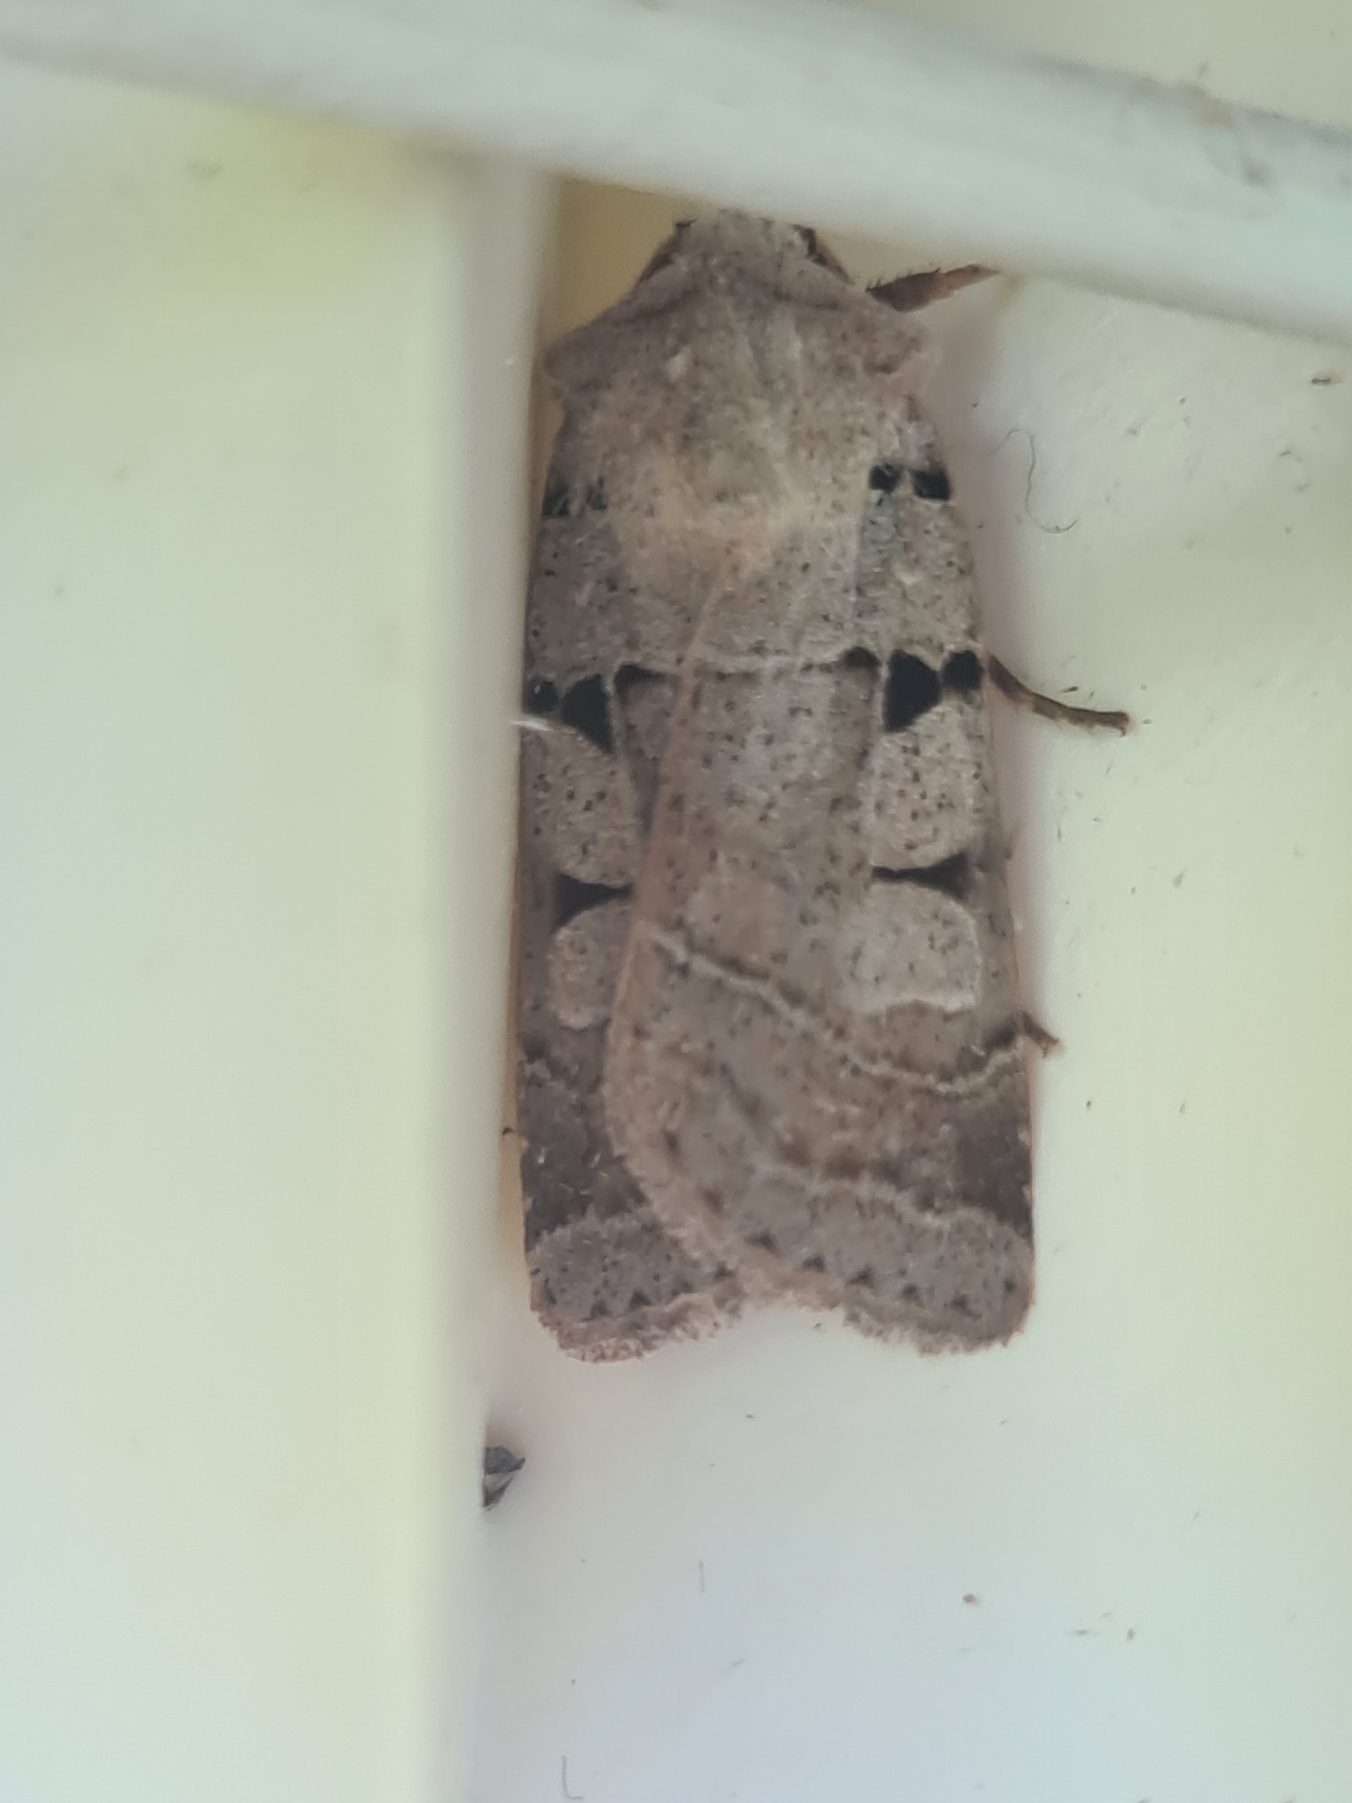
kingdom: Animalia
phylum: Arthropoda
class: Insecta
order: Lepidoptera
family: Noctuidae
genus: Eugnorisma
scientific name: Eugnorisma glareosa
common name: Strand-gråugle
